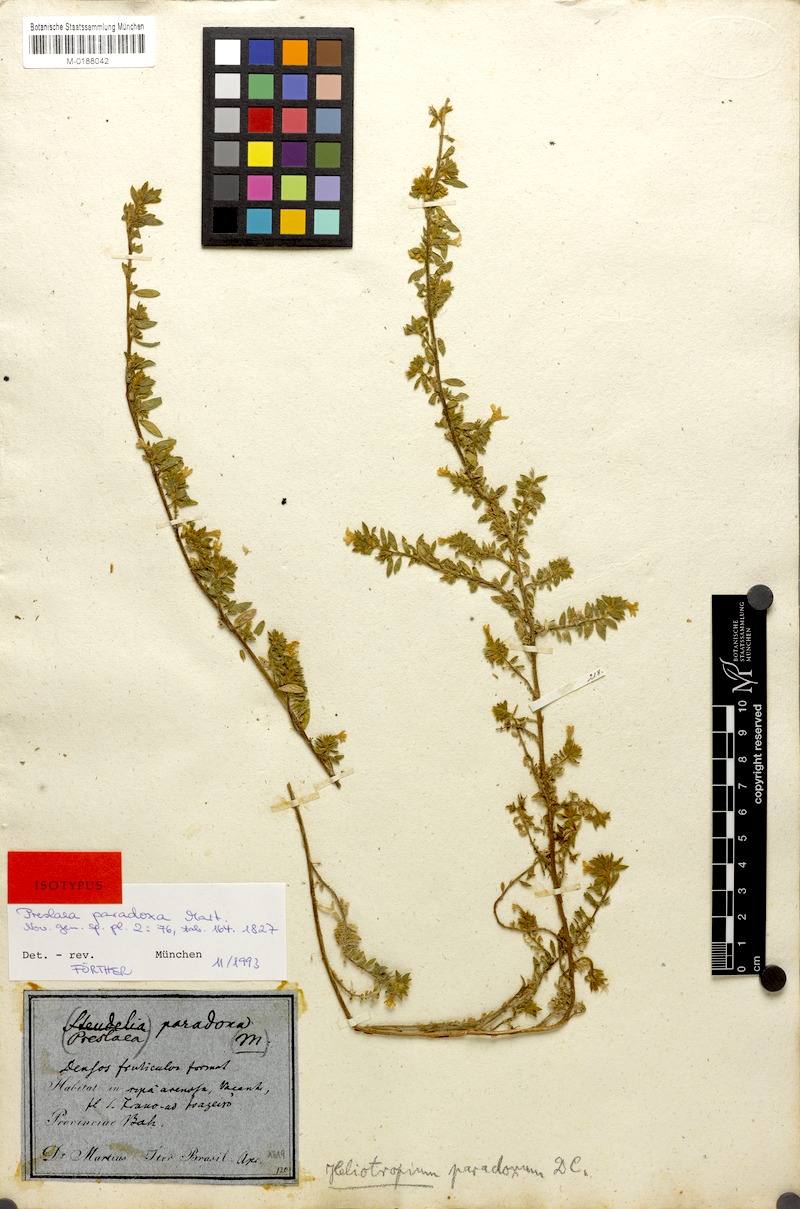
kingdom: Plantae
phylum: Tracheophyta
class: Magnoliopsida
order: Boraginales
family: Heliotropiaceae
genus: Euploca
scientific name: Euploca paradoxa
